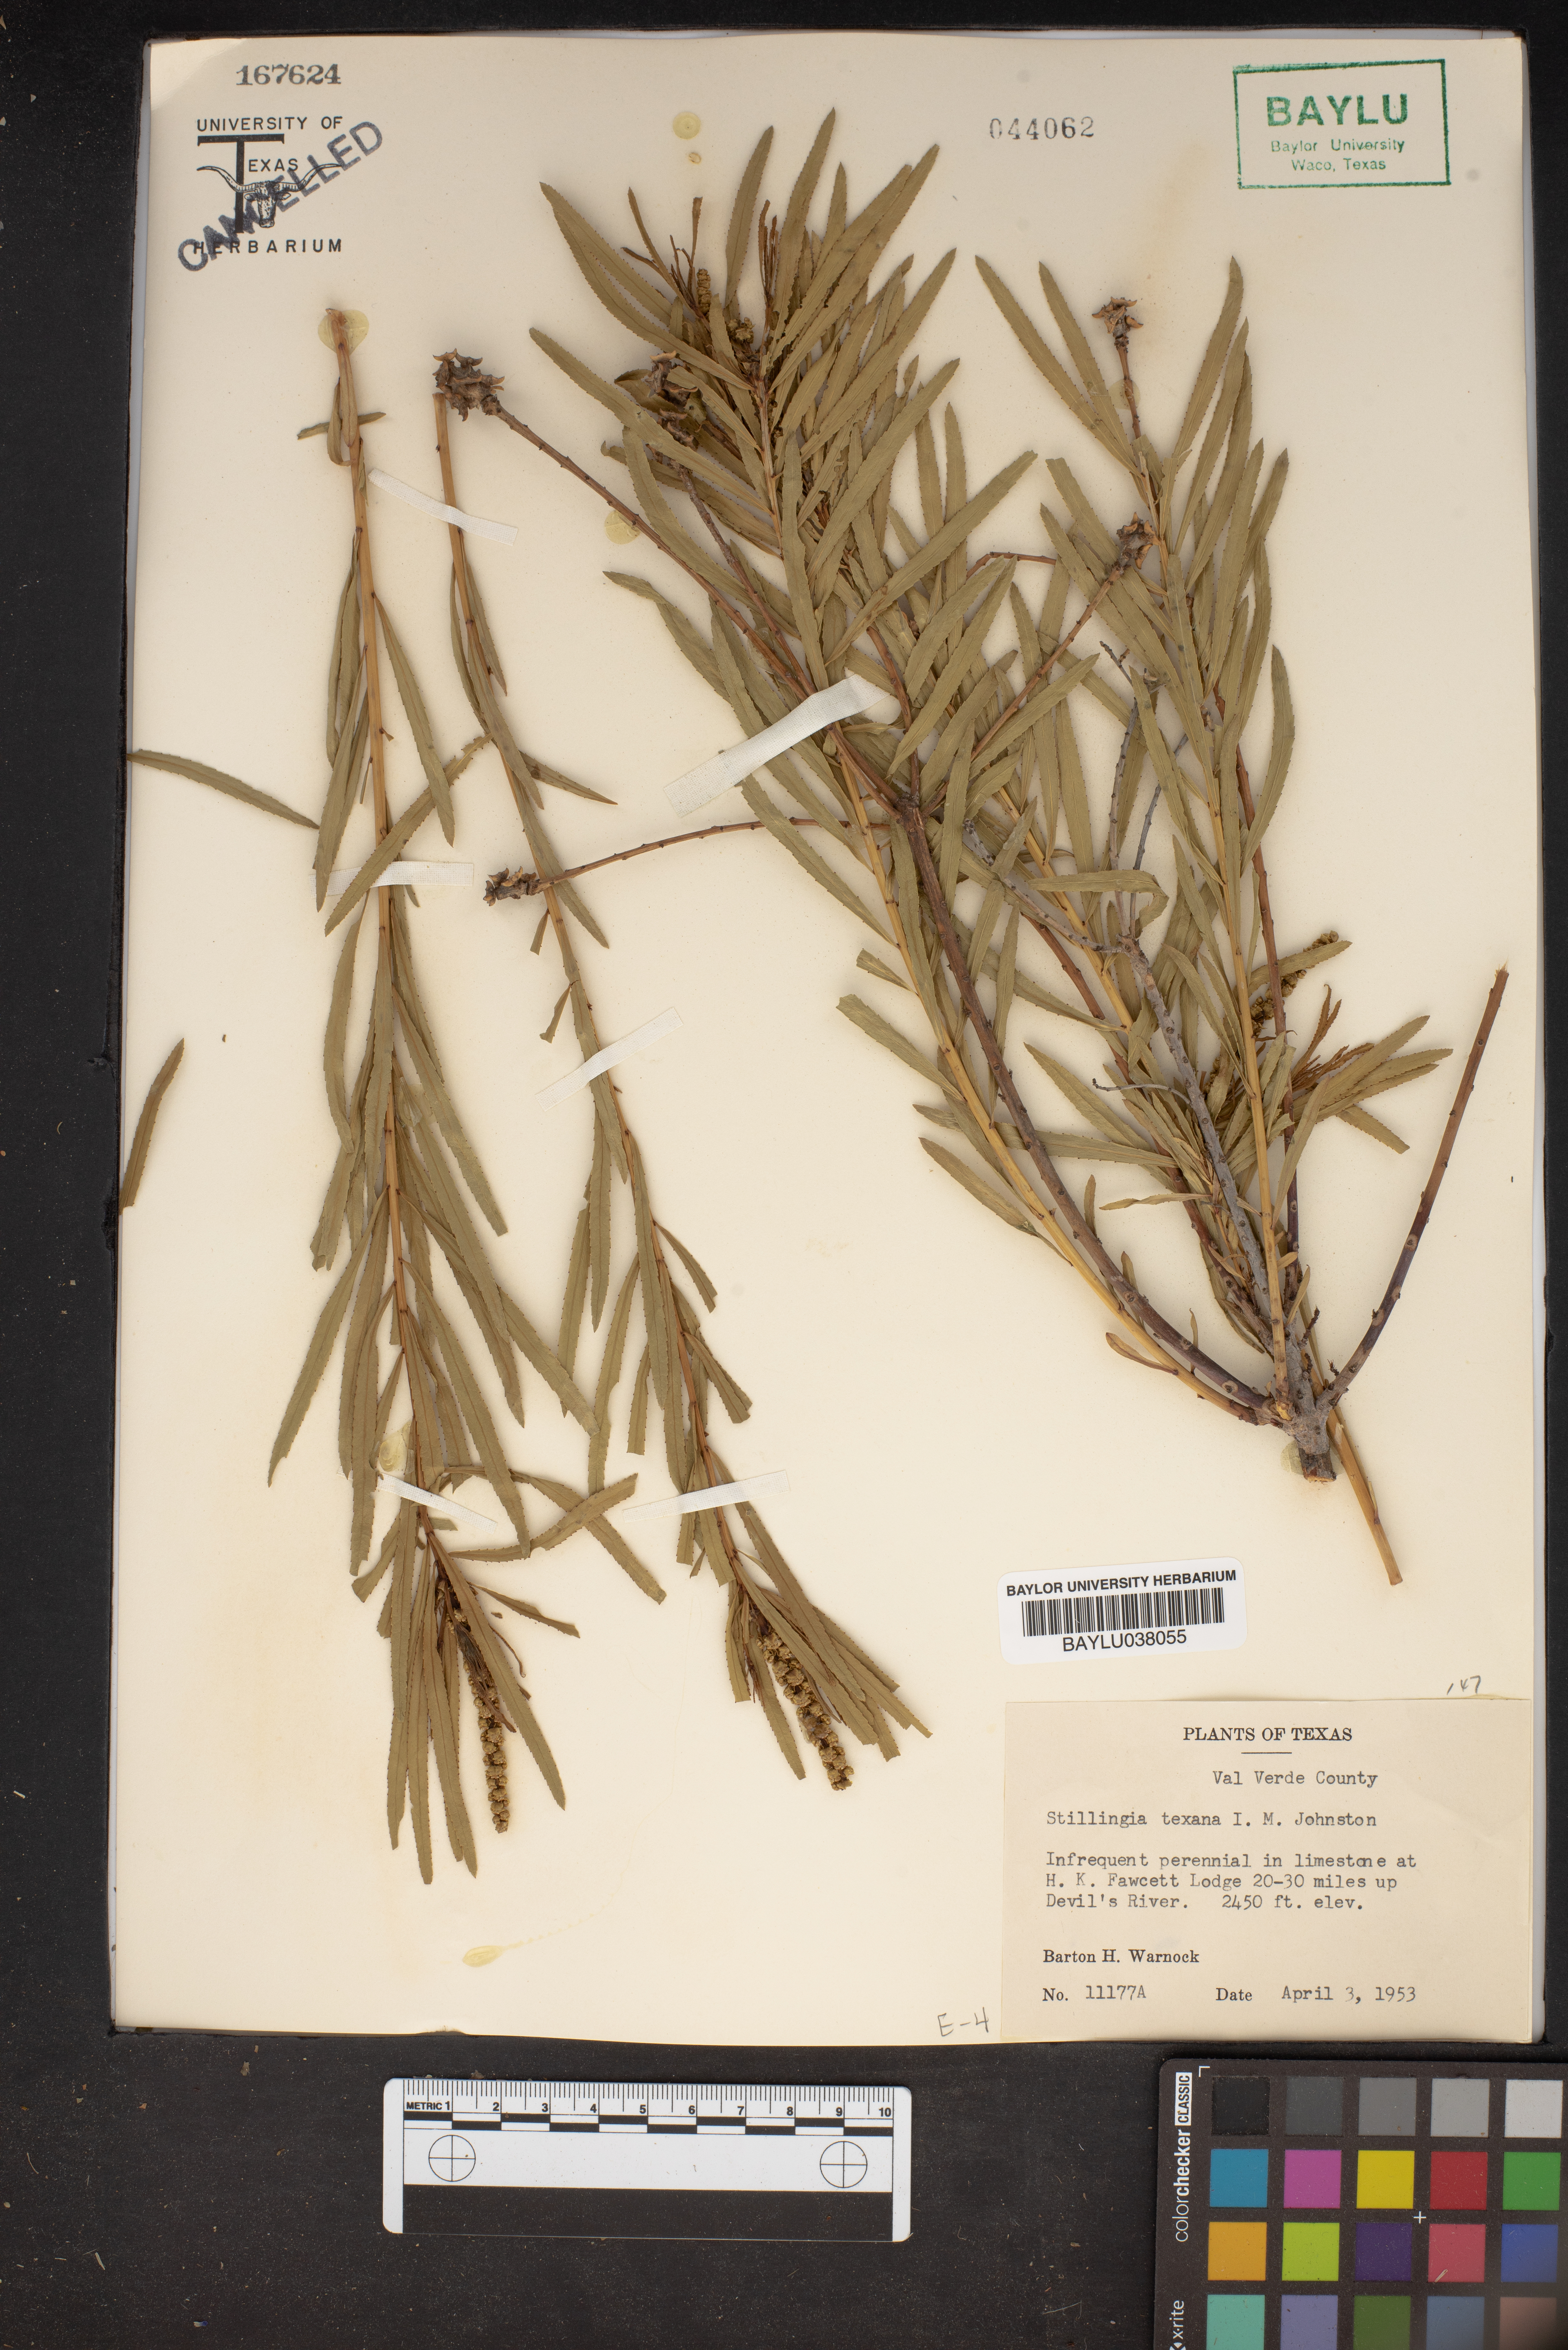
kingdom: Plantae
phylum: Tracheophyta
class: Magnoliopsida
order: Malpighiales
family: Euphorbiaceae
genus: Stillingia
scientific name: Stillingia texana
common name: Texas stillingia
